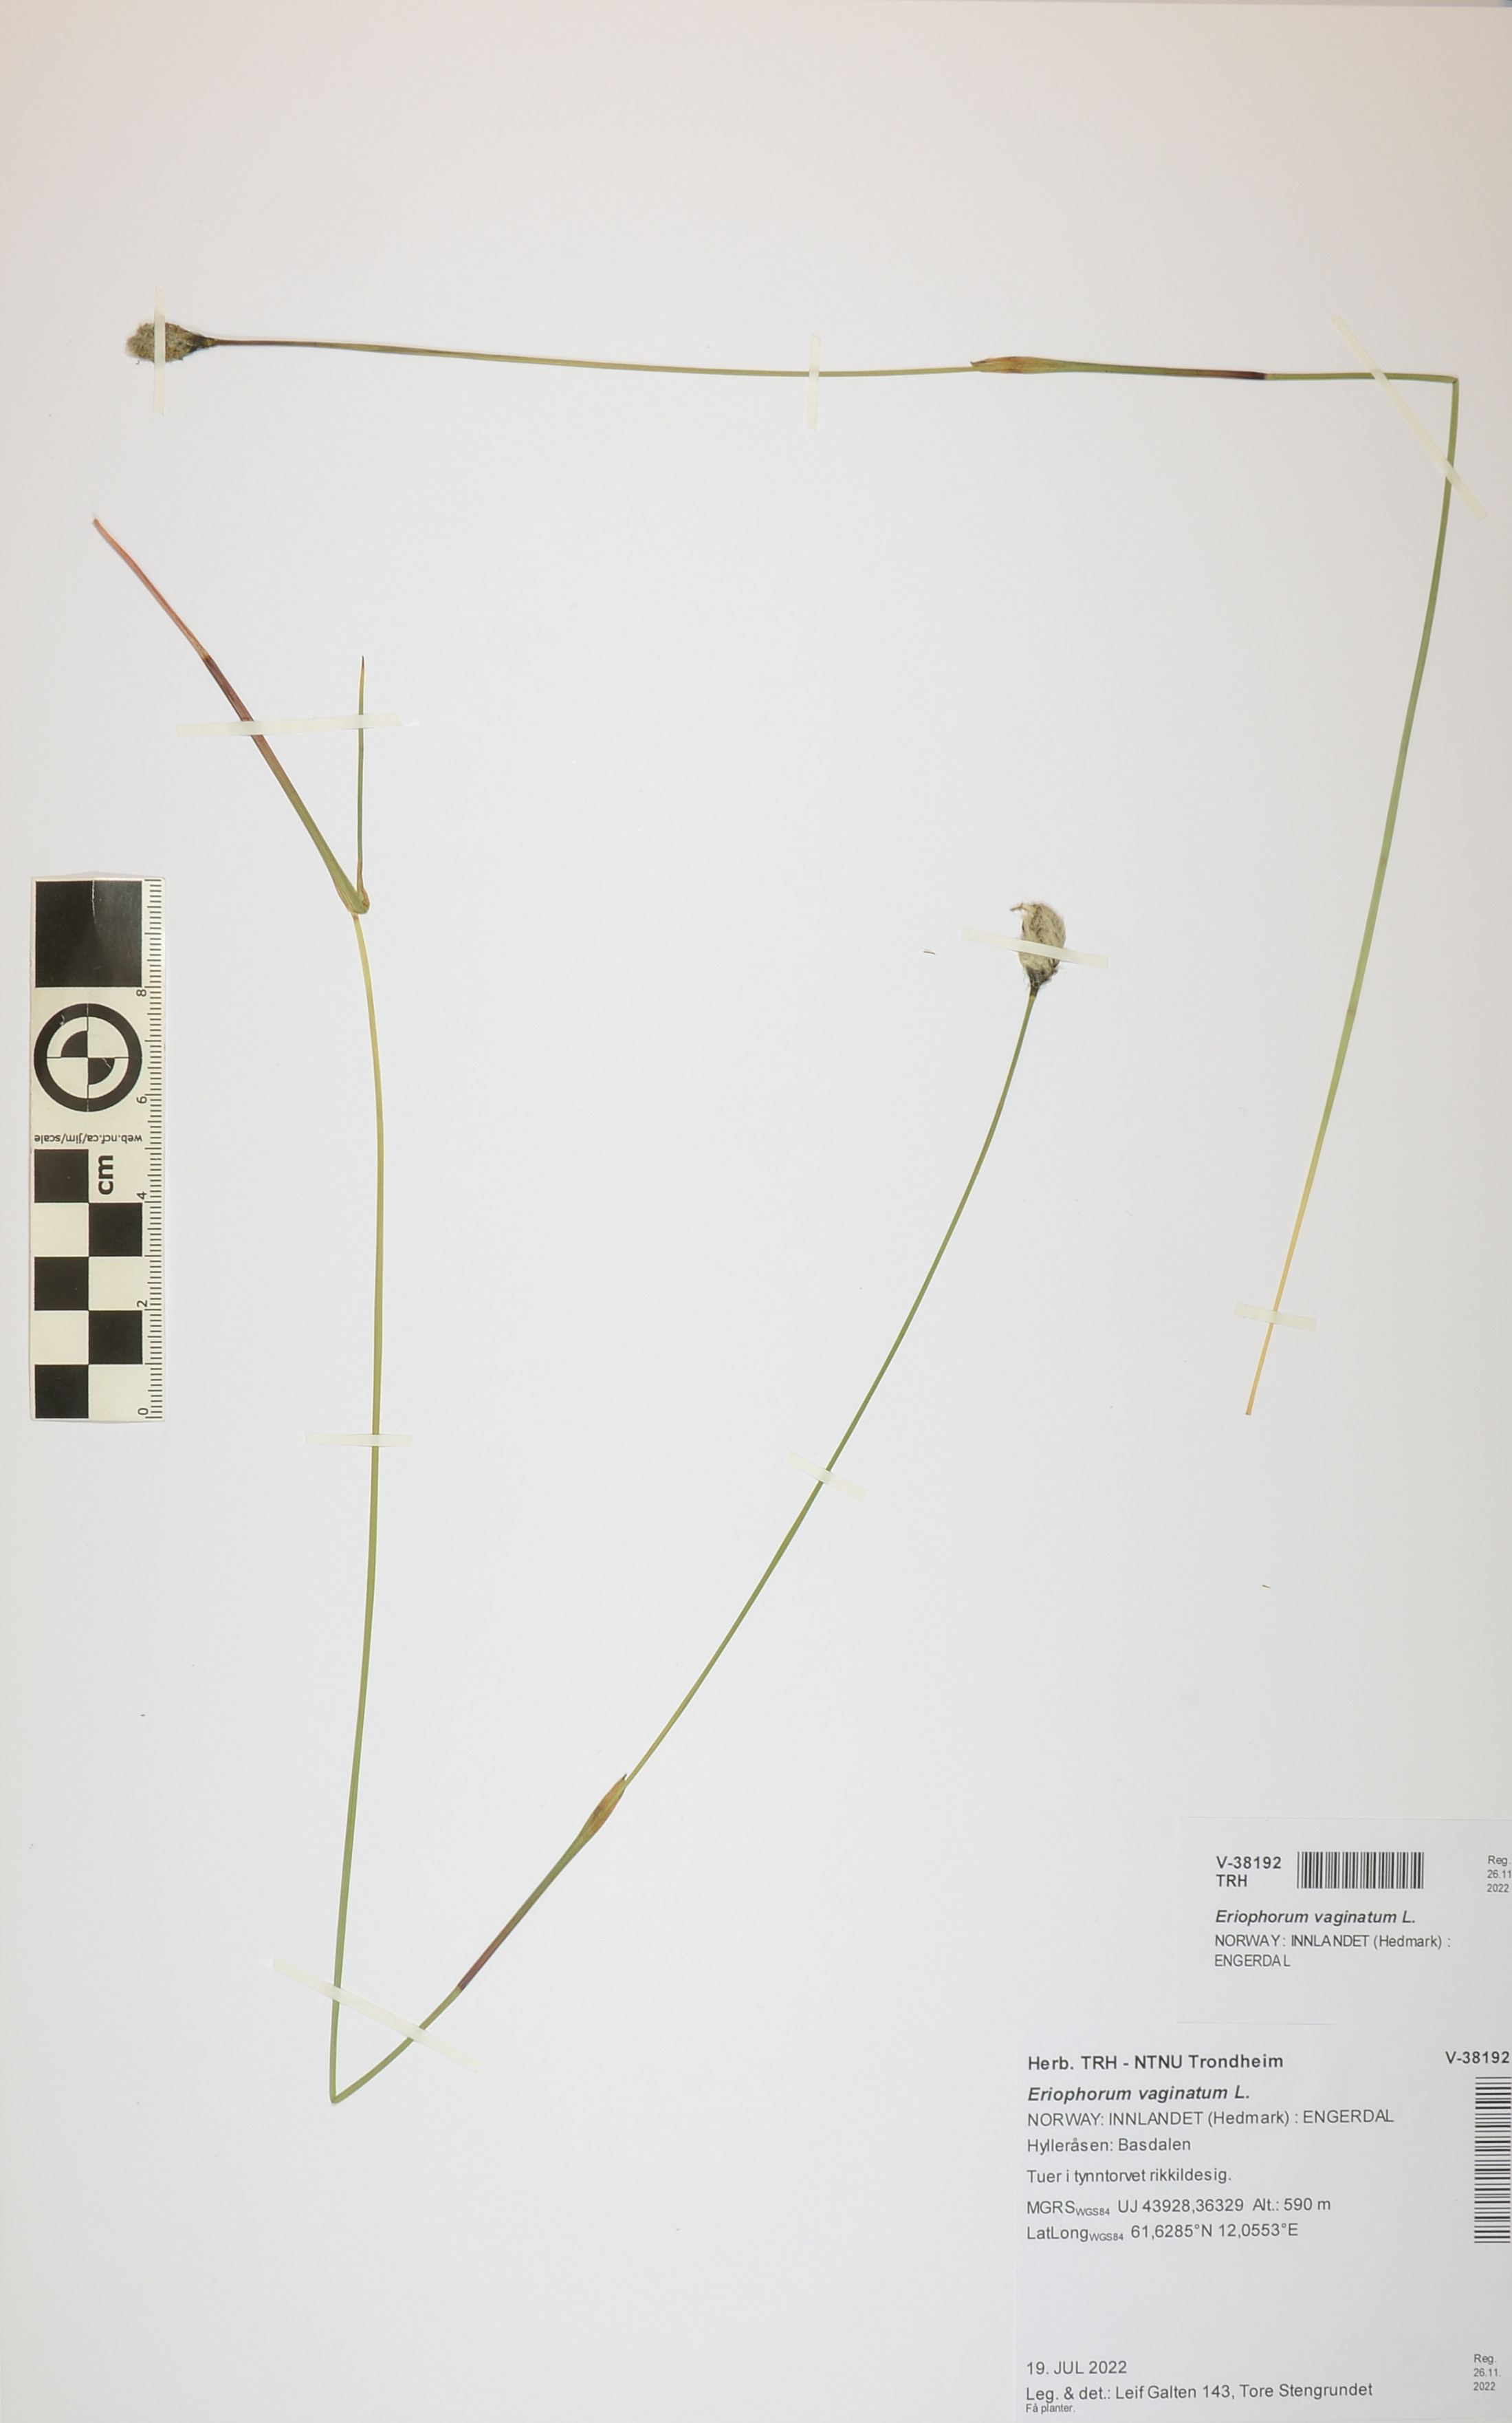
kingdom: Plantae
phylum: Tracheophyta
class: Liliopsida
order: Poales
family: Cyperaceae
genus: Eriophorum
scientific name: Eriophorum vaginatum
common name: Hare's-tail cottongrass
